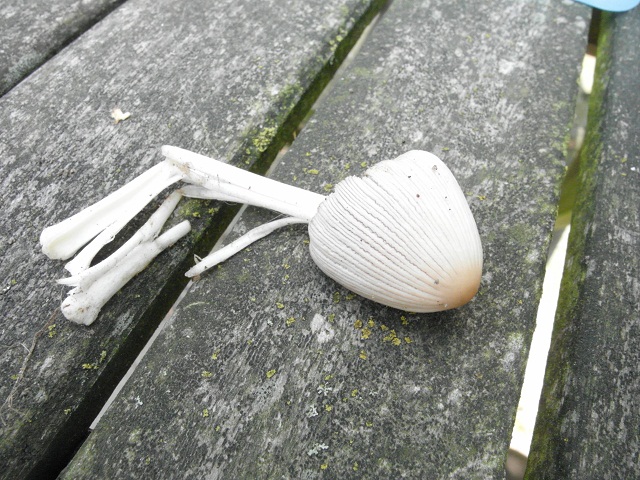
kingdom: Fungi
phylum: Basidiomycota
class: Agaricomycetes
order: Agaricales
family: Psathyrellaceae
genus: Coprinellus
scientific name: Coprinellus domesticus
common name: hus-blækhat
